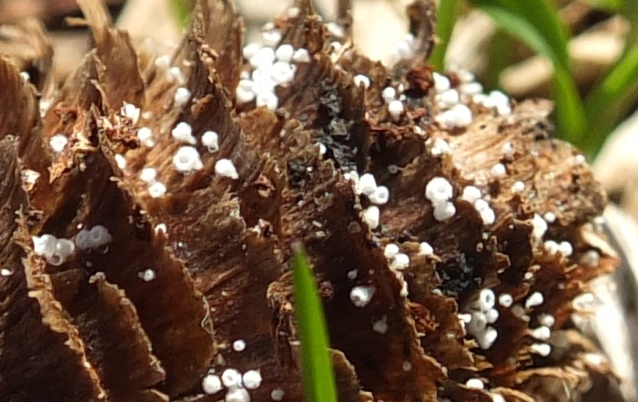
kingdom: Fungi
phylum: Ascomycota
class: Leotiomycetes
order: Helotiales
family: Lachnaceae
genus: Lachnum
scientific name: Lachnum virgineum
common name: jomfru-frynseskive
